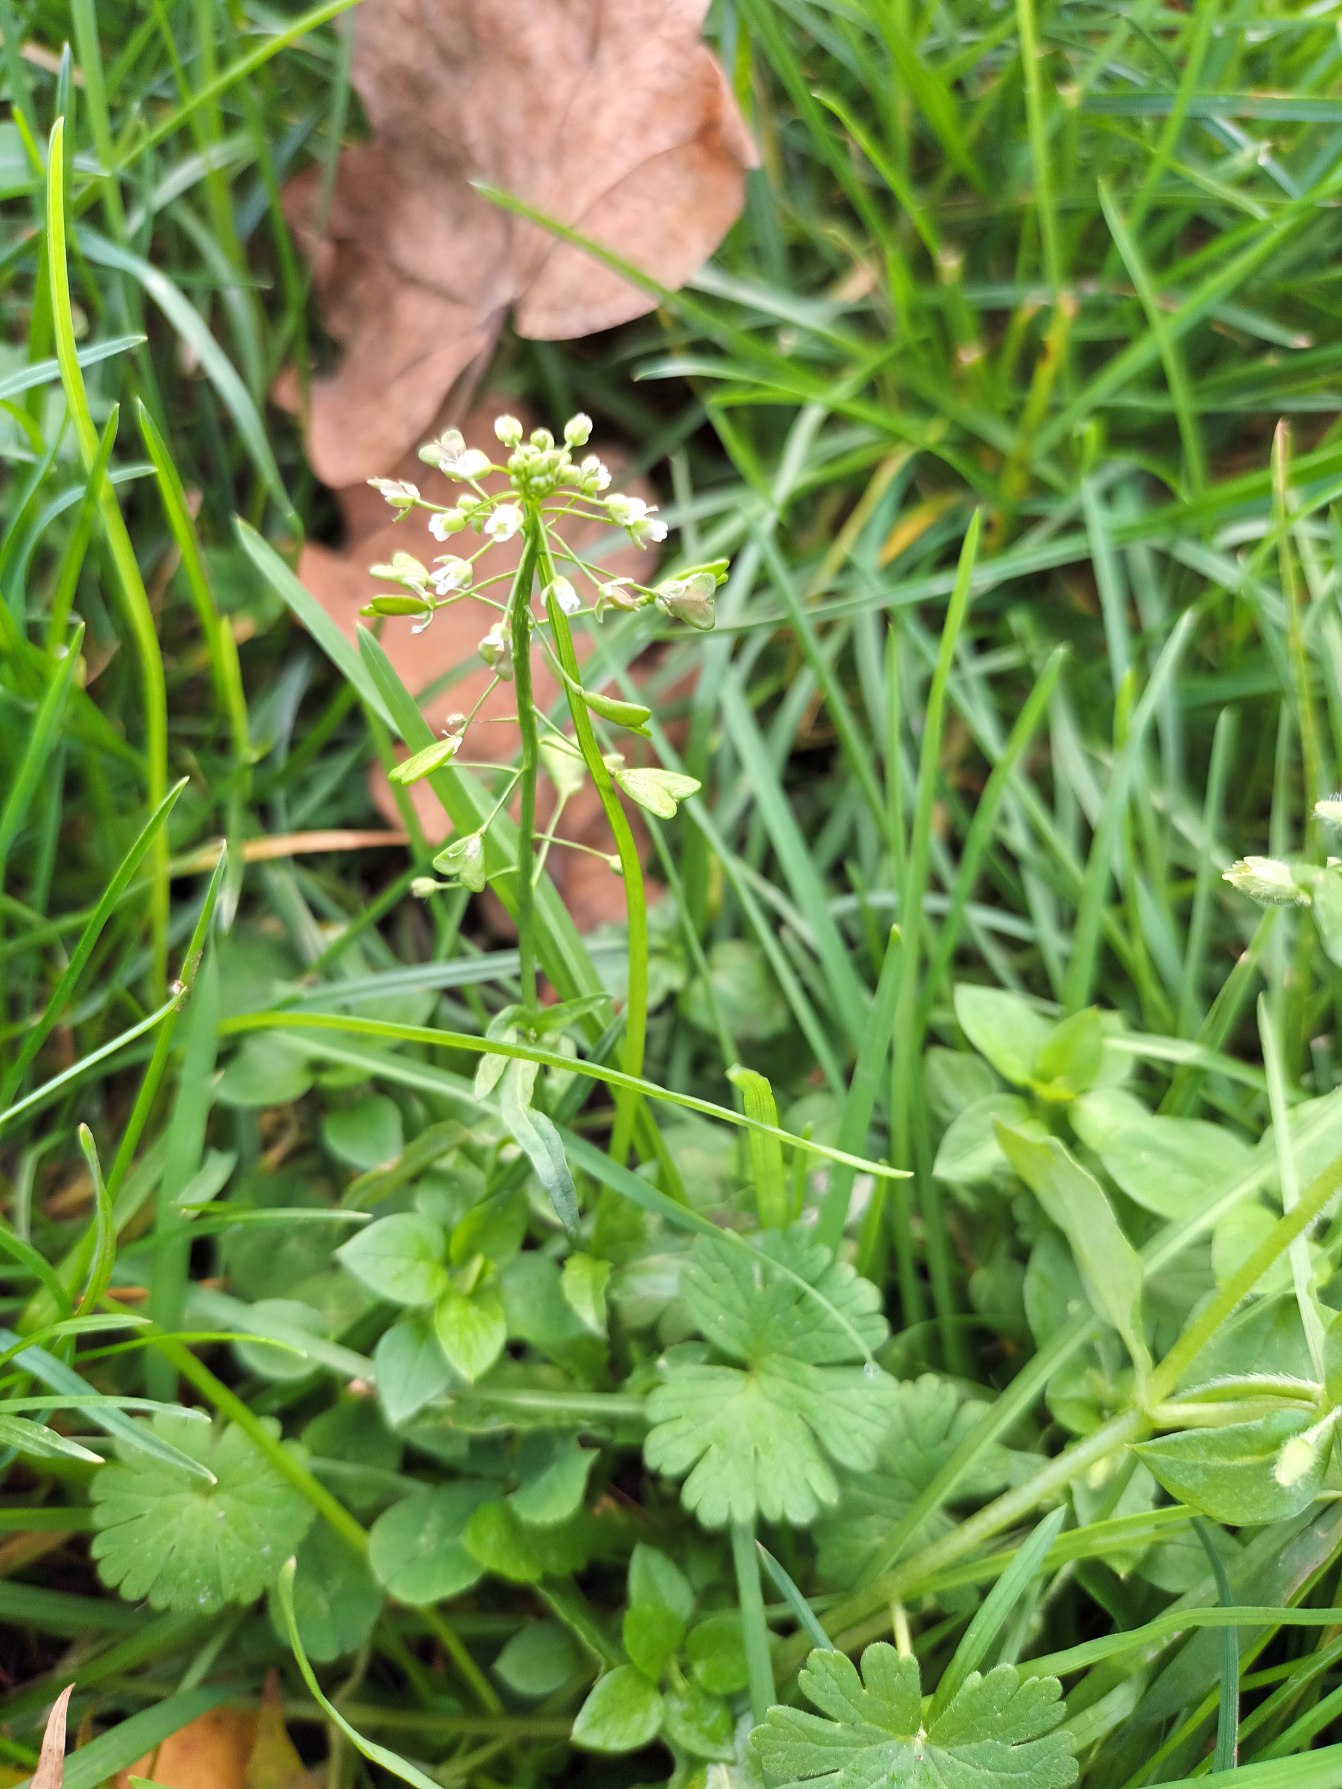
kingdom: Plantae
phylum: Tracheophyta
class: Magnoliopsida
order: Brassicales
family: Brassicaceae
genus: Capsella
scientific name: Capsella bursa-pastoris
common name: Hyrdetaske
